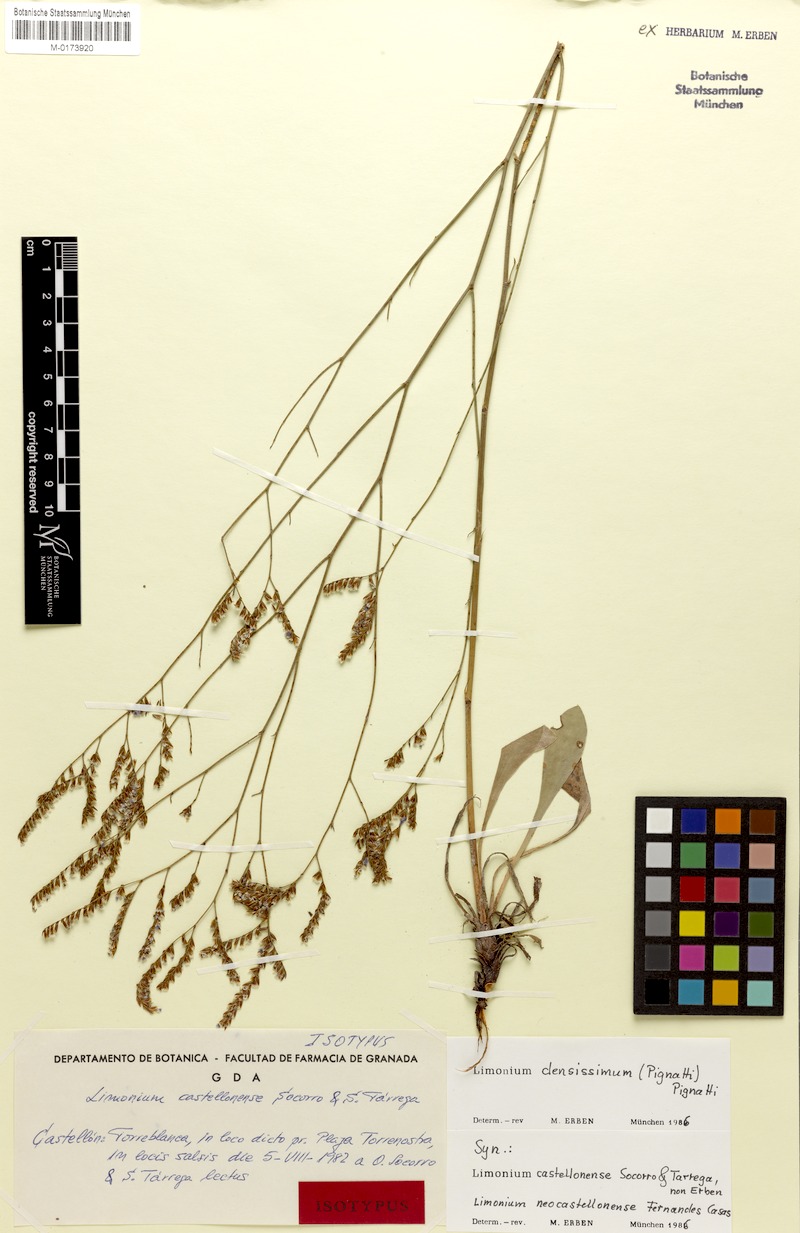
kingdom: Plantae
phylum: Tracheophyta
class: Magnoliopsida
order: Caryophyllales
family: Plumbaginaceae
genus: Limonium
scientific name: Limonium densissimum
